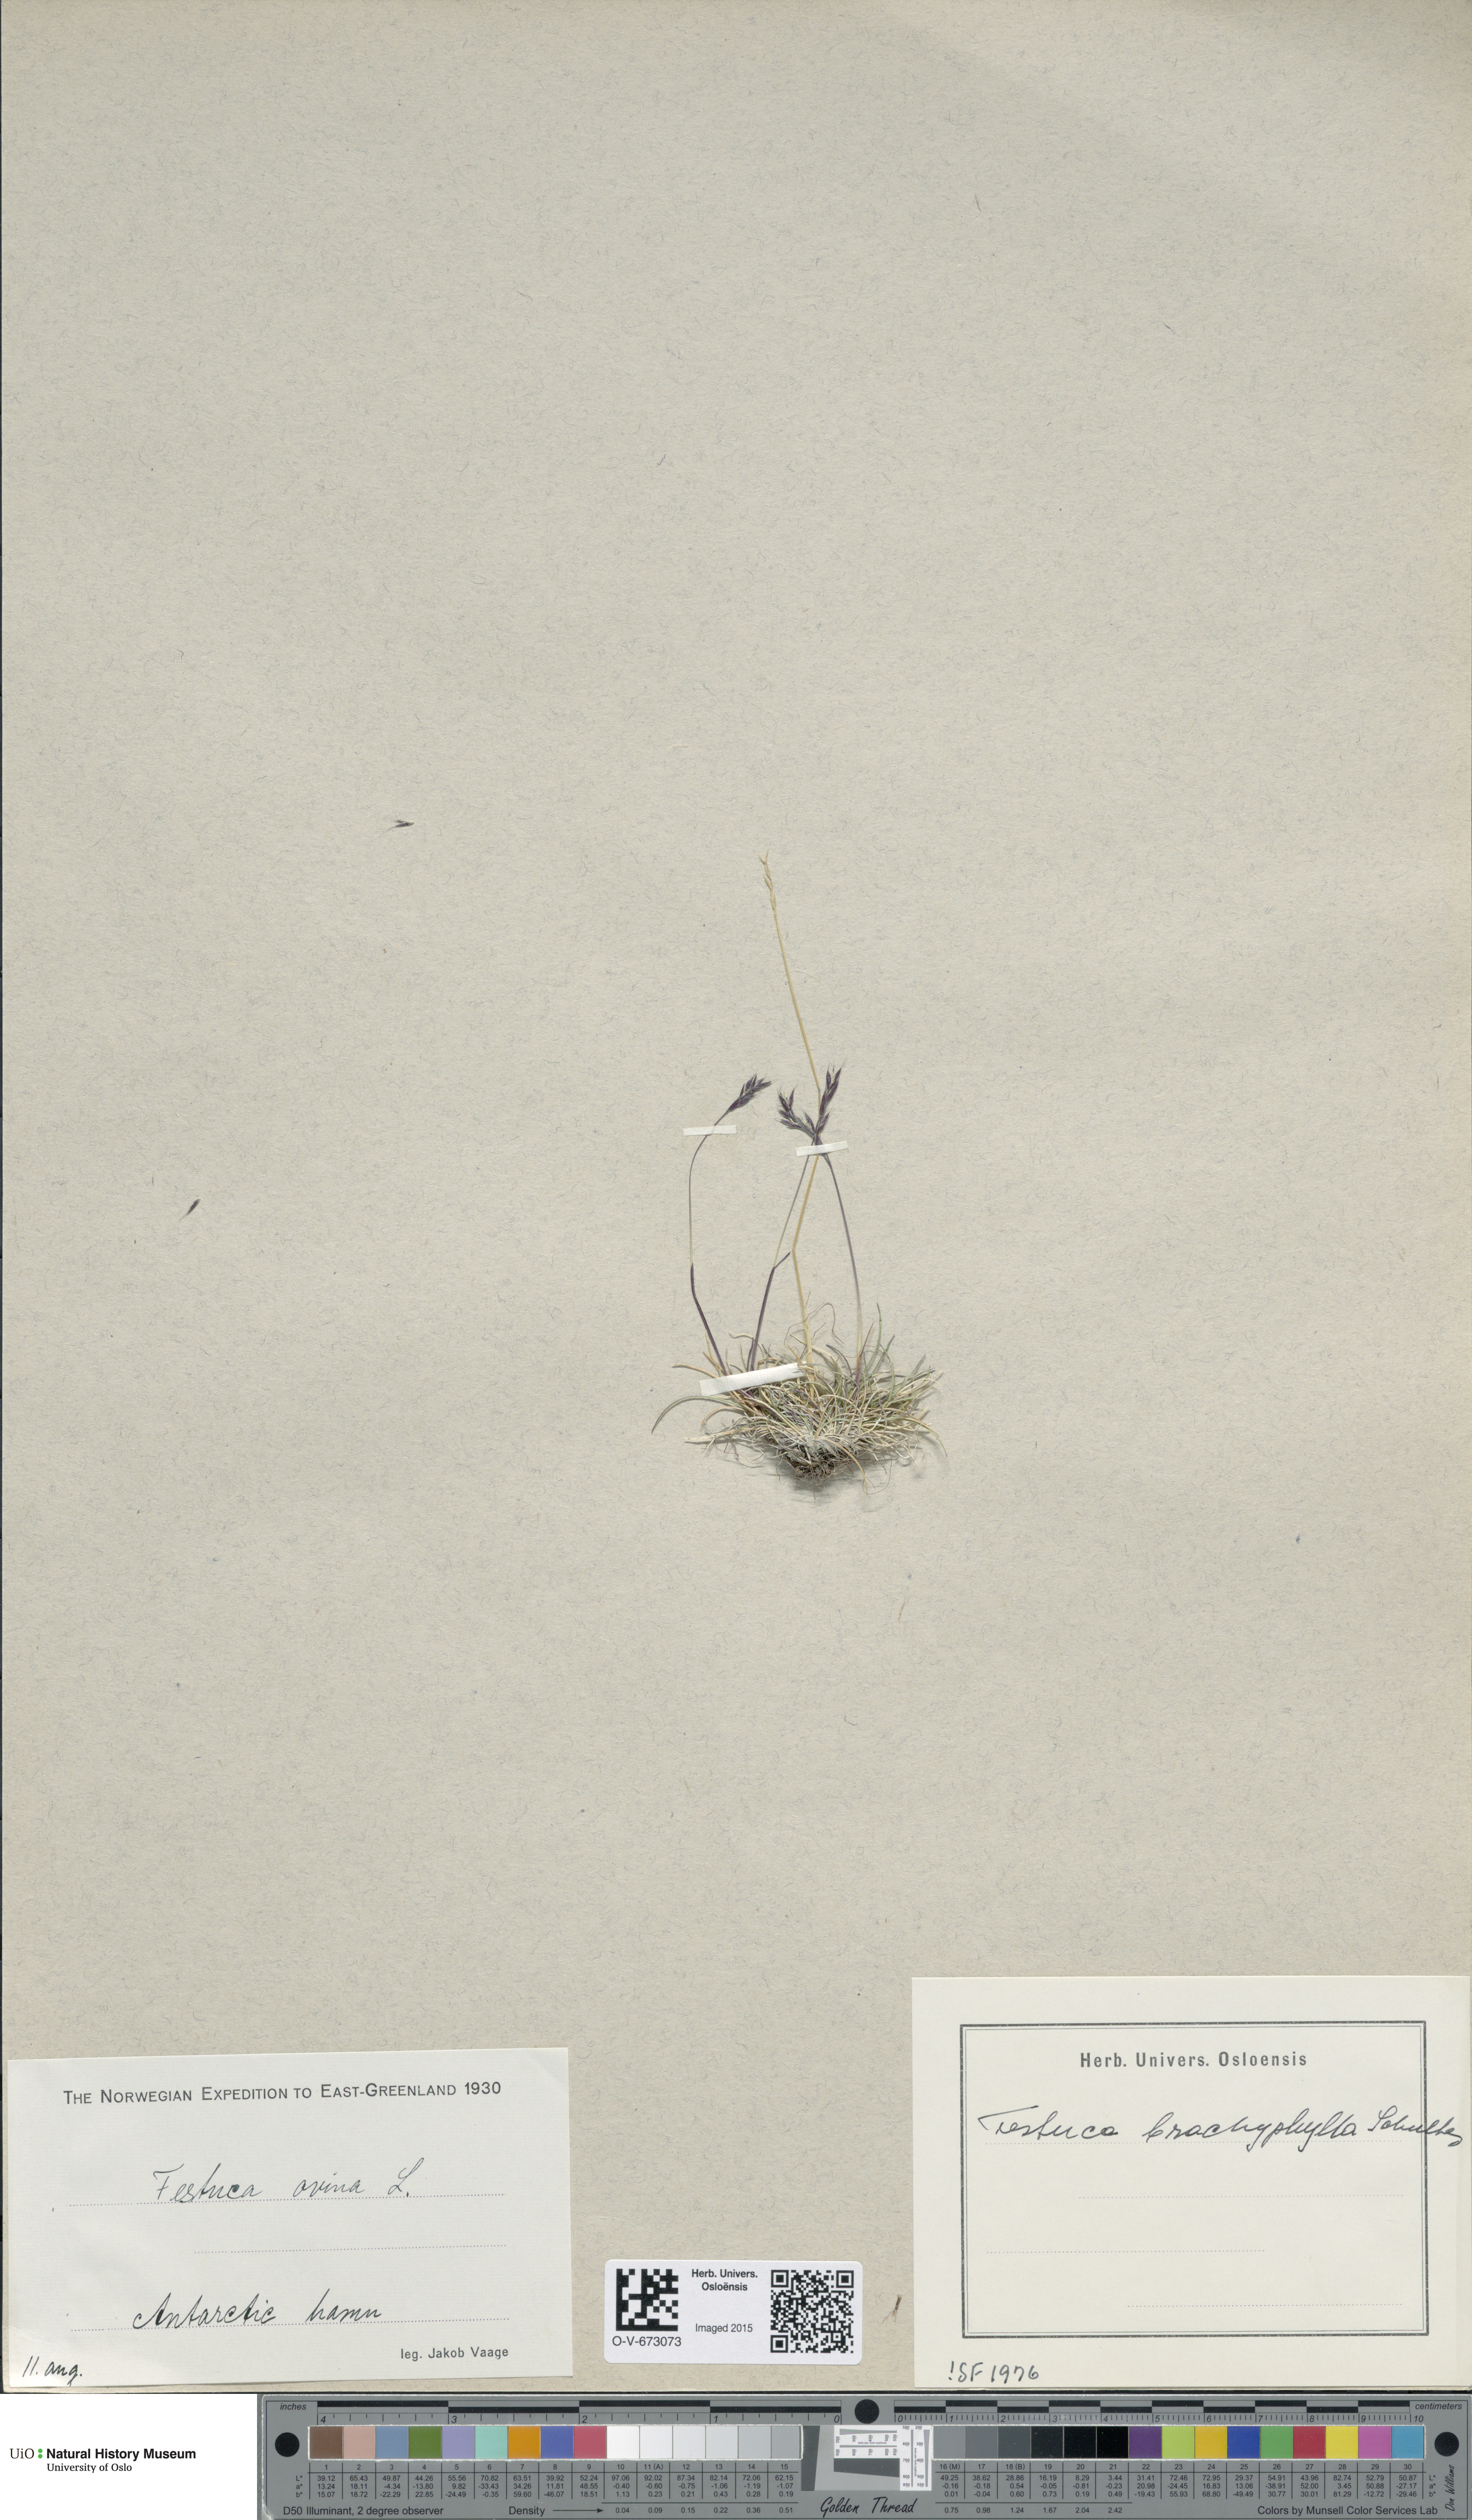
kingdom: Plantae
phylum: Tracheophyta
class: Liliopsida
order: Poales
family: Poaceae
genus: Festuca
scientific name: Festuca brachyphylla
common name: Alpine fescue
